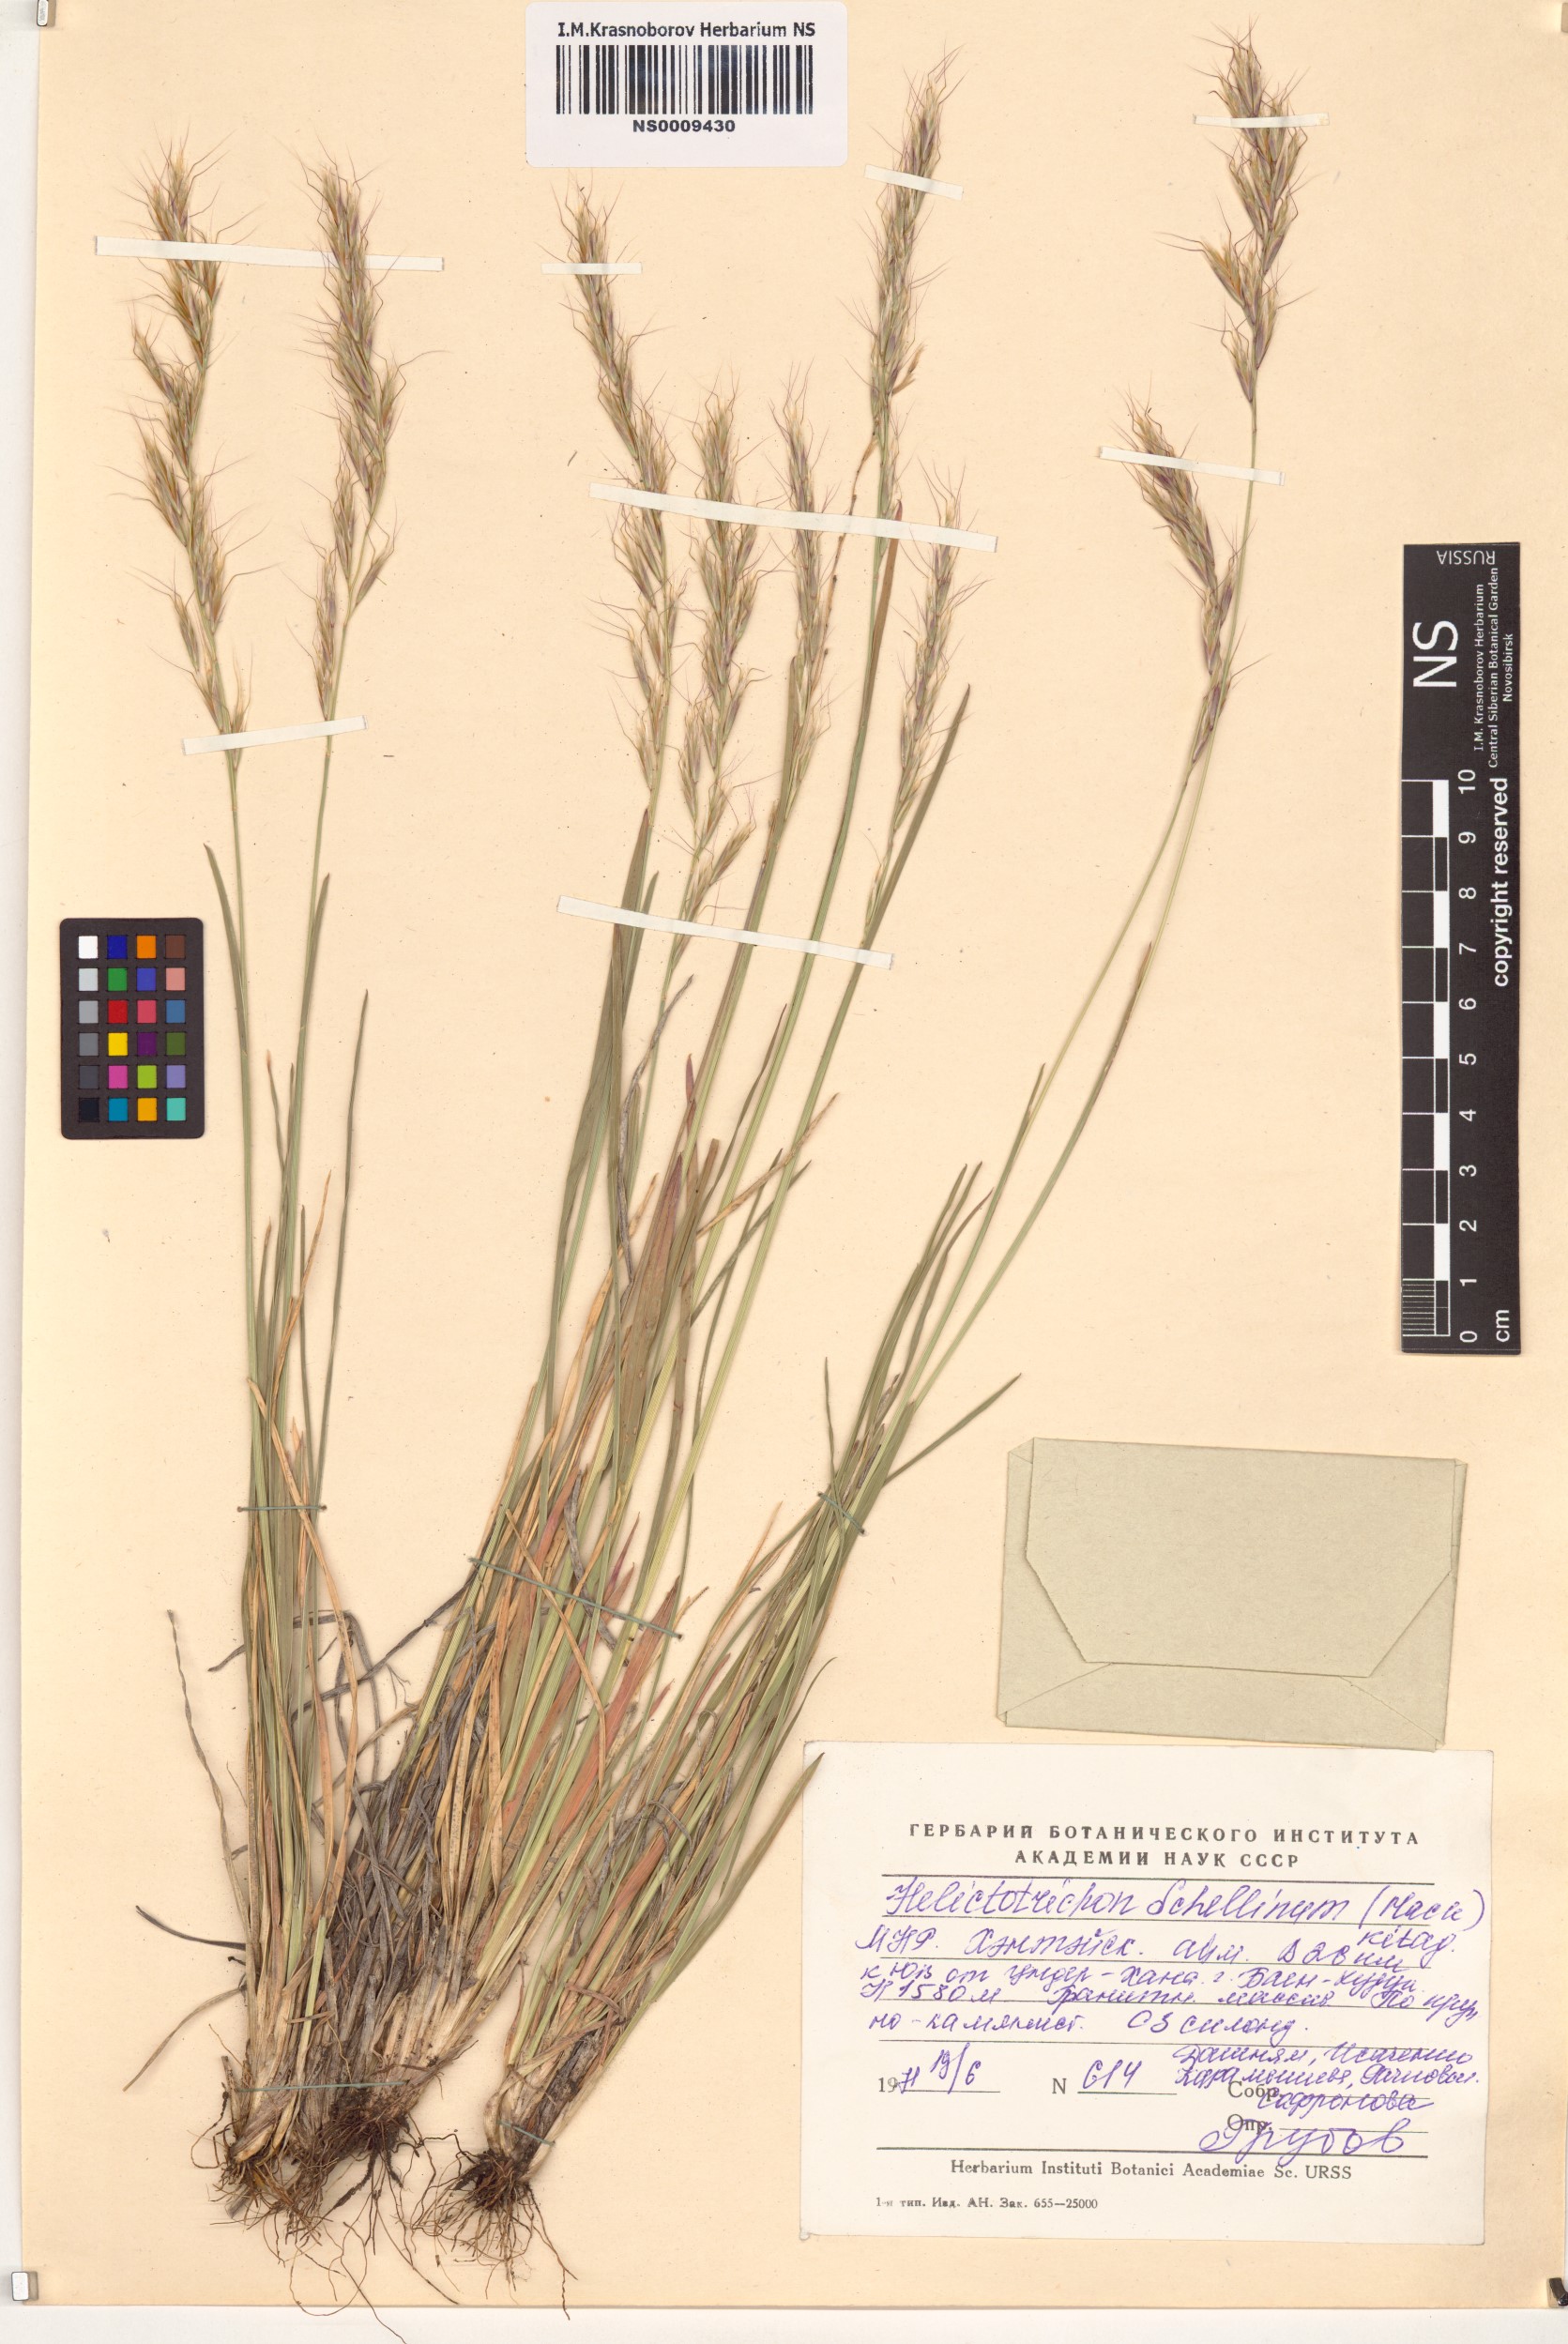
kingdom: Plantae
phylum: Tracheophyta
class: Liliopsida
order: Poales
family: Poaceae
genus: Helictochloa
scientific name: Helictochloa hookeri
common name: Hooker's alpine oatgrass
